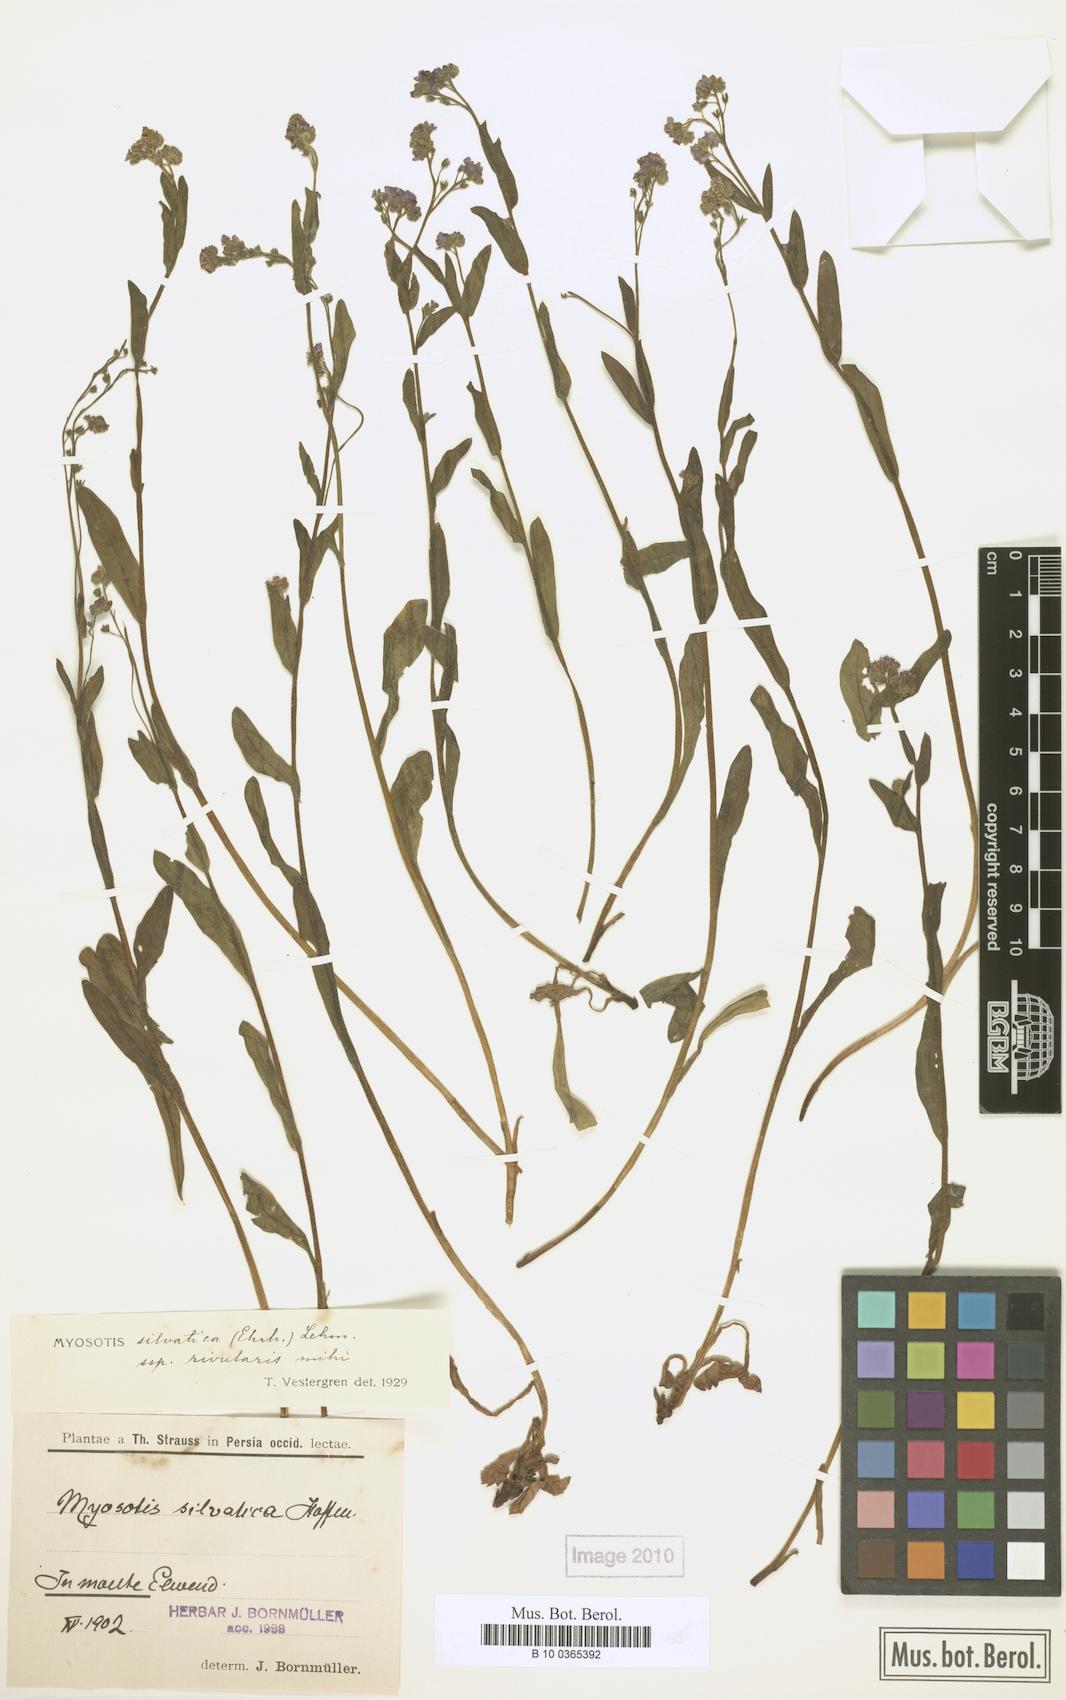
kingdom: Plantae
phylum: Tracheophyta
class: Magnoliopsida
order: Boraginales
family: Boraginaceae
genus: Myosotis
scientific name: Myosotis rivularis
